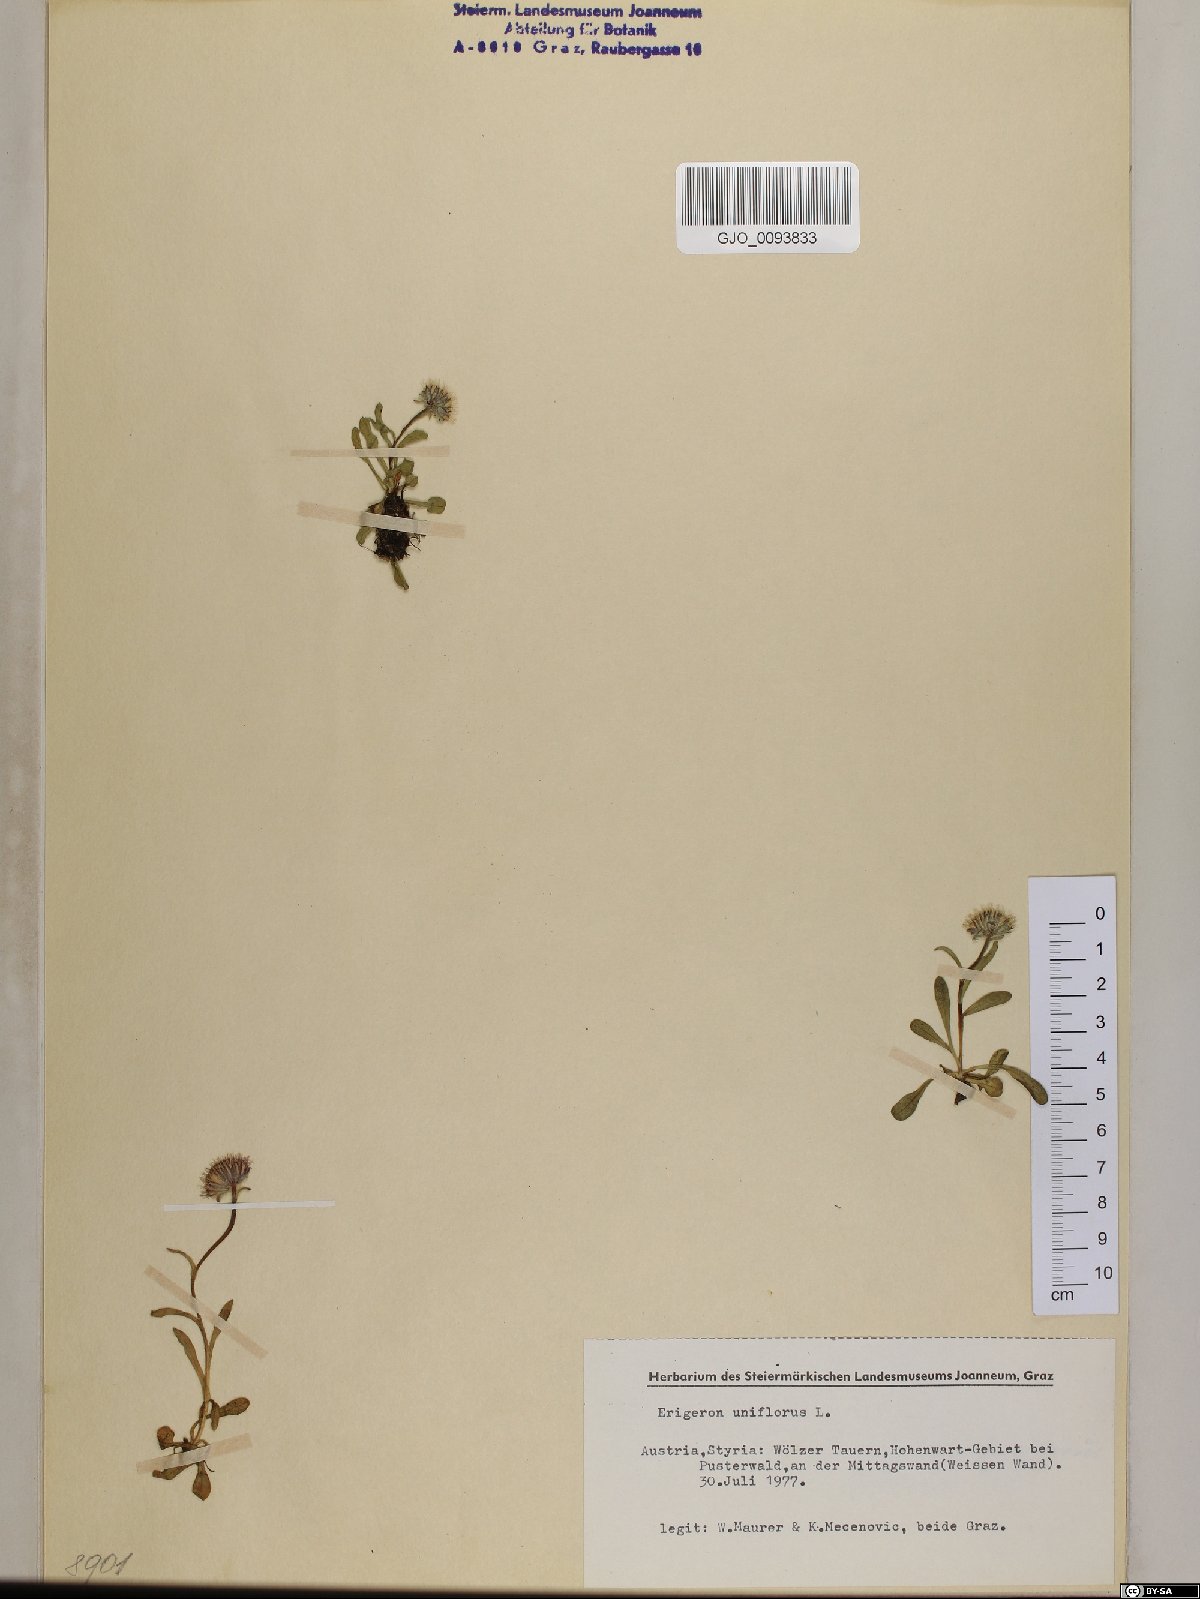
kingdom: Plantae
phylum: Tracheophyta
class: Magnoliopsida
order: Asterales
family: Asteraceae
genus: Erigeron
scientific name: Erigeron uniflorus
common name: Northern daisy
